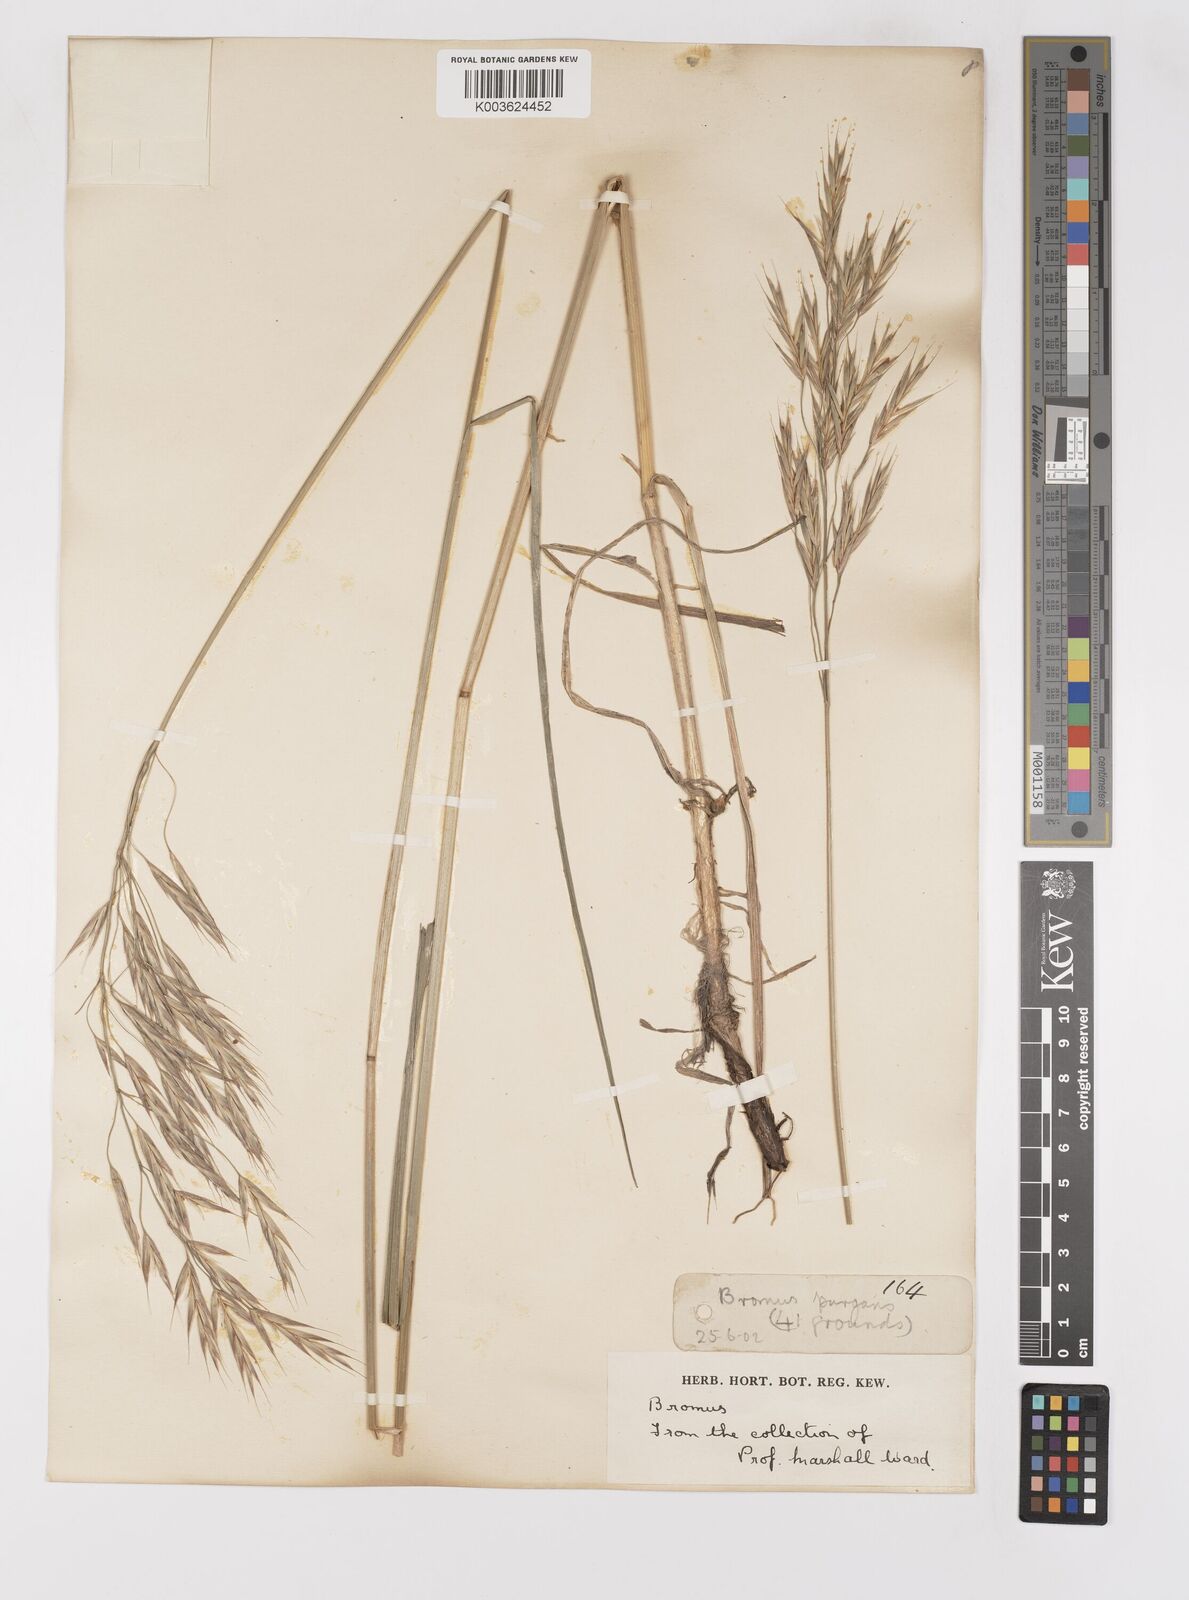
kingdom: Plantae
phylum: Tracheophyta
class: Liliopsida
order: Poales
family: Poaceae
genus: Bromus
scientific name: Bromus
